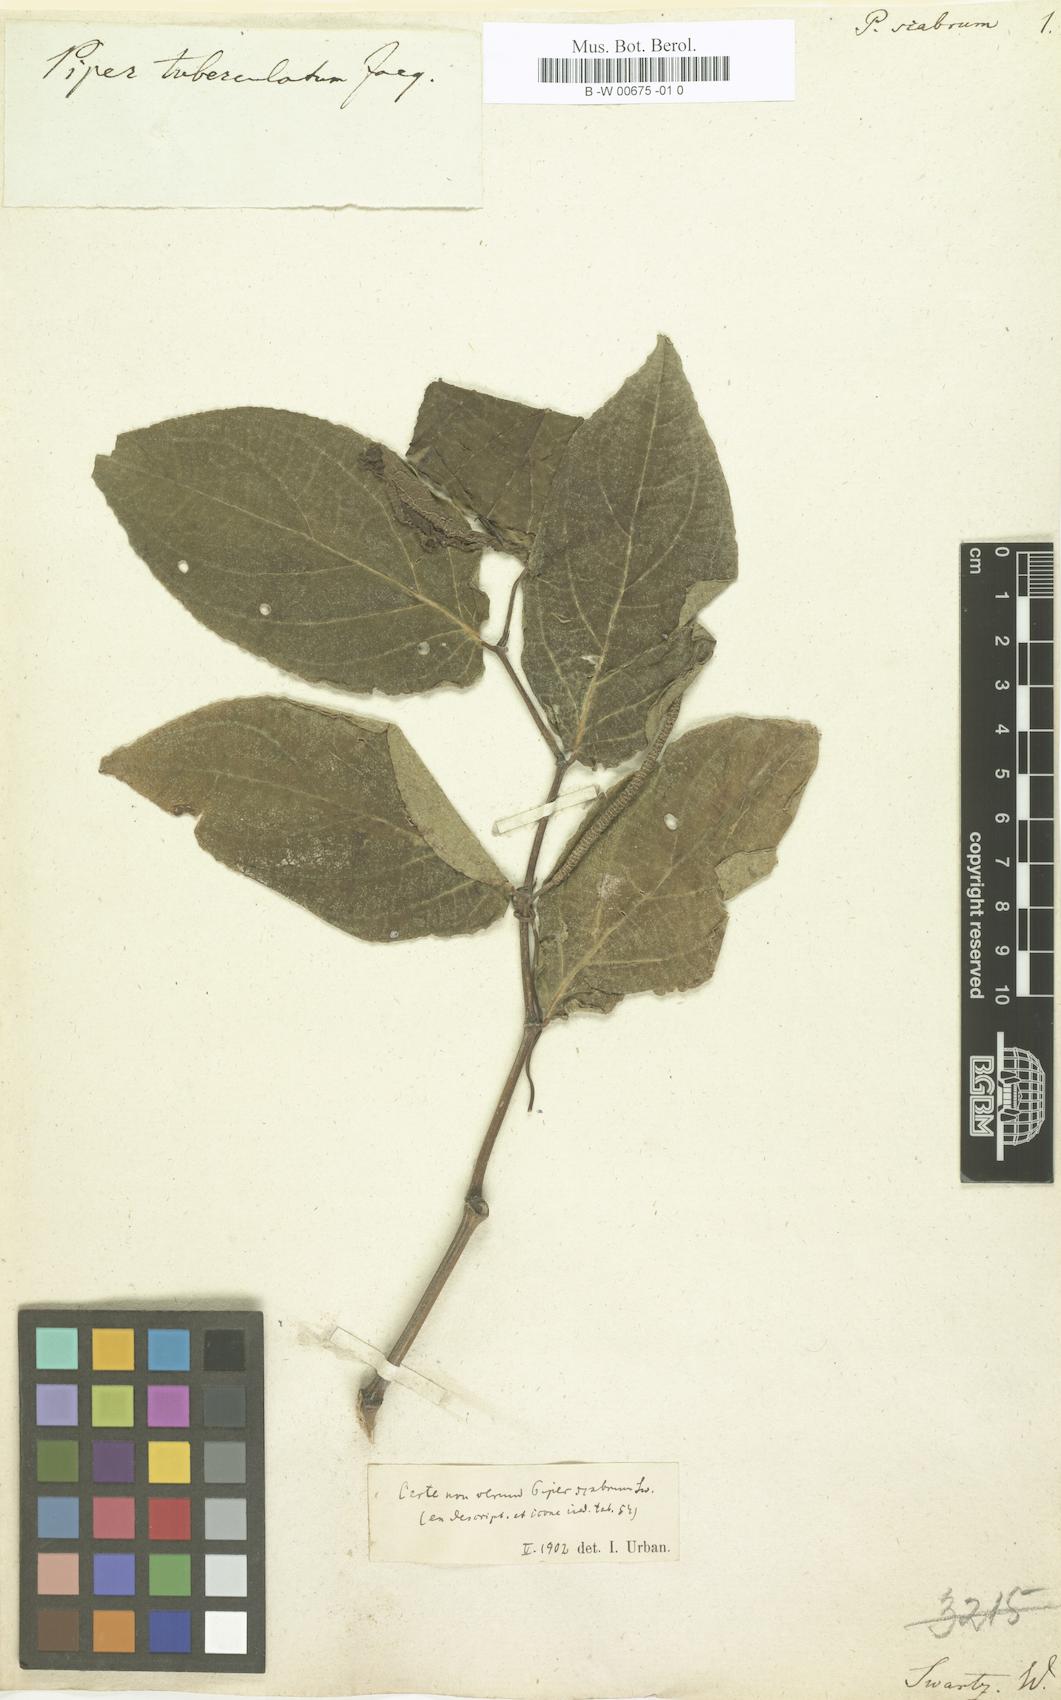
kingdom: Plantae
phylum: Tracheophyta
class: Magnoliopsida
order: Piperales
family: Piperaceae
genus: Piper
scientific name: Piper tuberculatum
